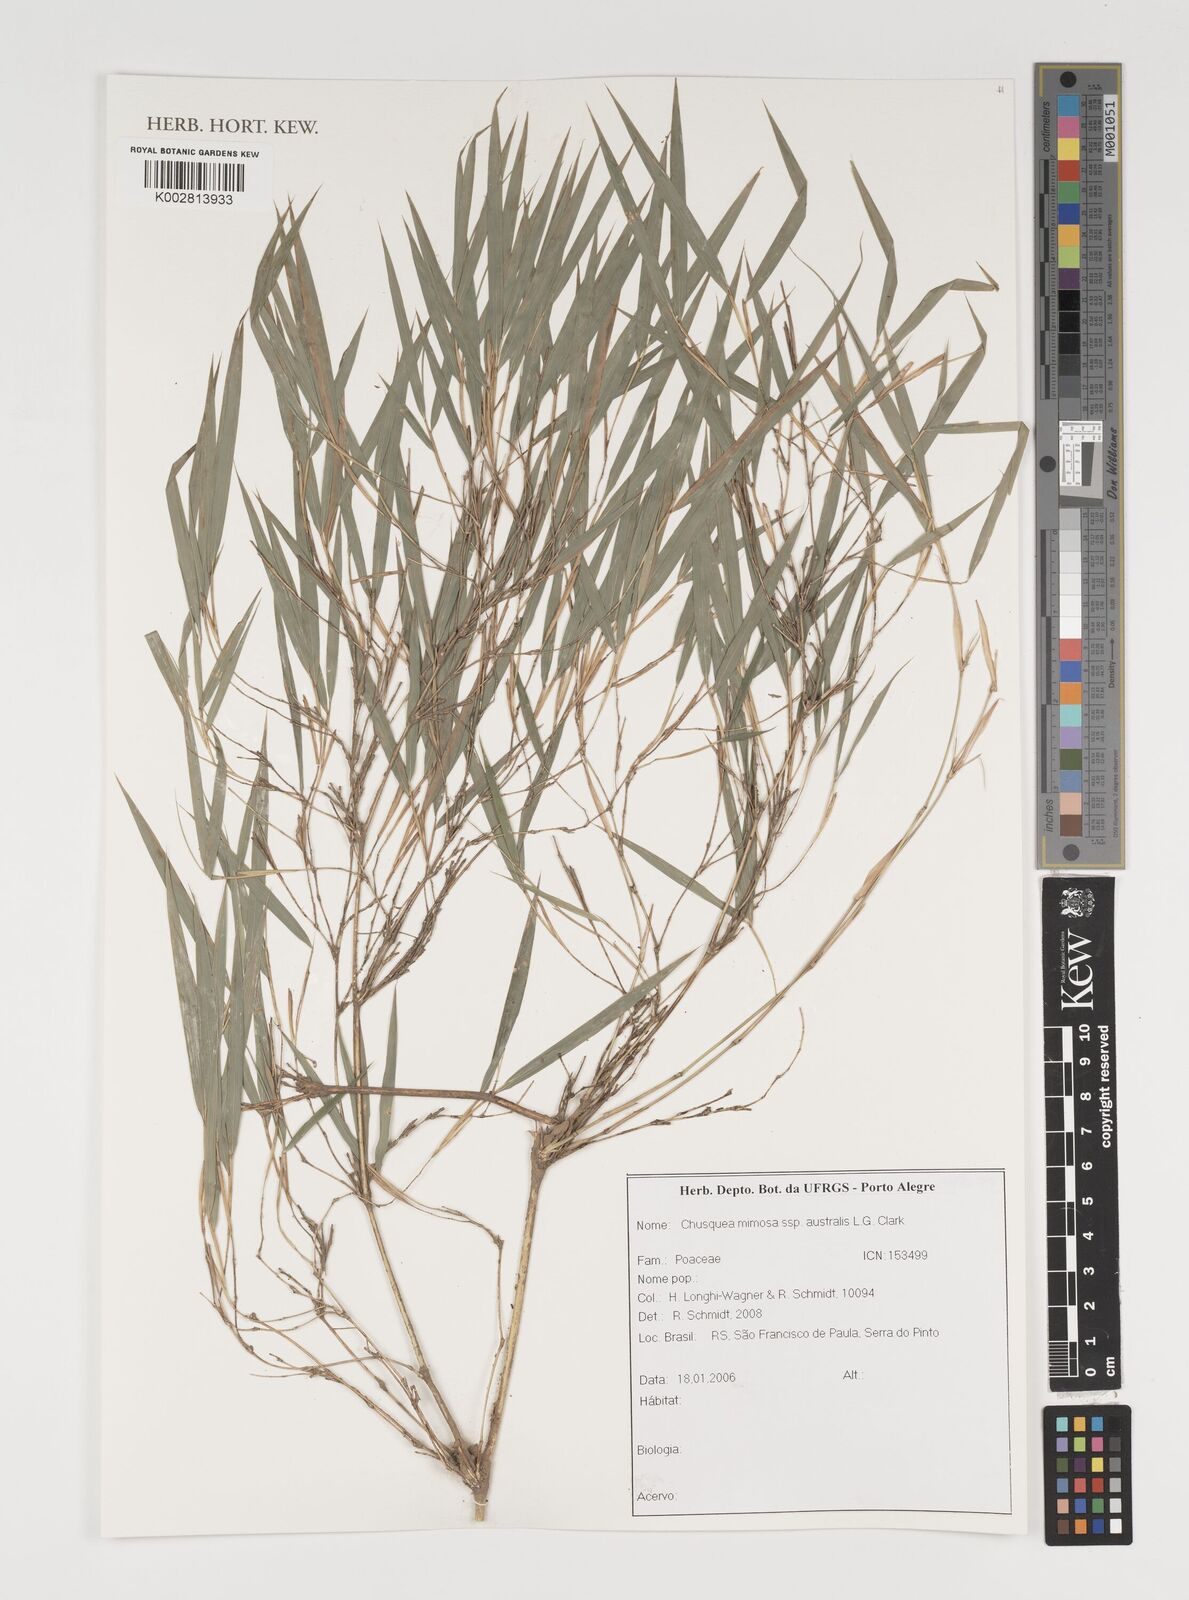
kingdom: Plantae
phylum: Tracheophyta
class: Liliopsida
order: Poales
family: Poaceae
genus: Chusquea
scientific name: Chusquea mimosa
